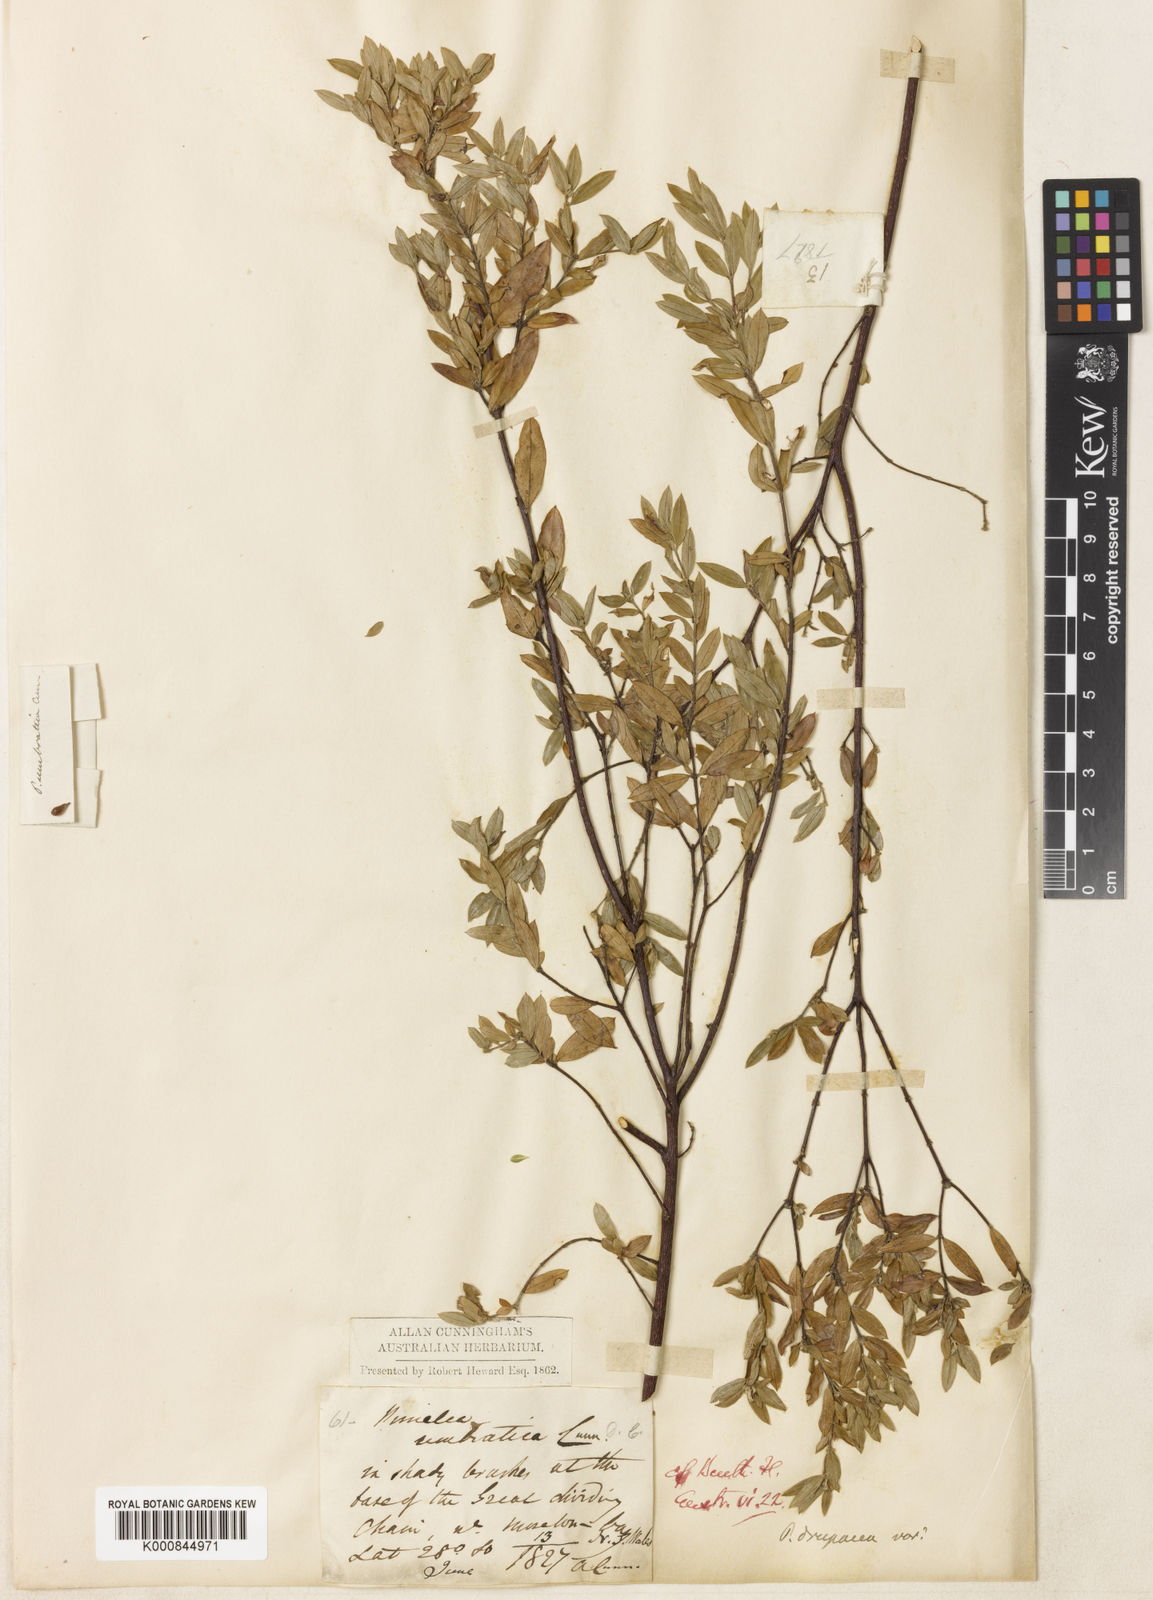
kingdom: Plantae
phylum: Tracheophyta
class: Magnoliopsida
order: Malvales
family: Thymelaeaceae
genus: Pimelea
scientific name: Pimelea drupacea
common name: Cherry riceflower
